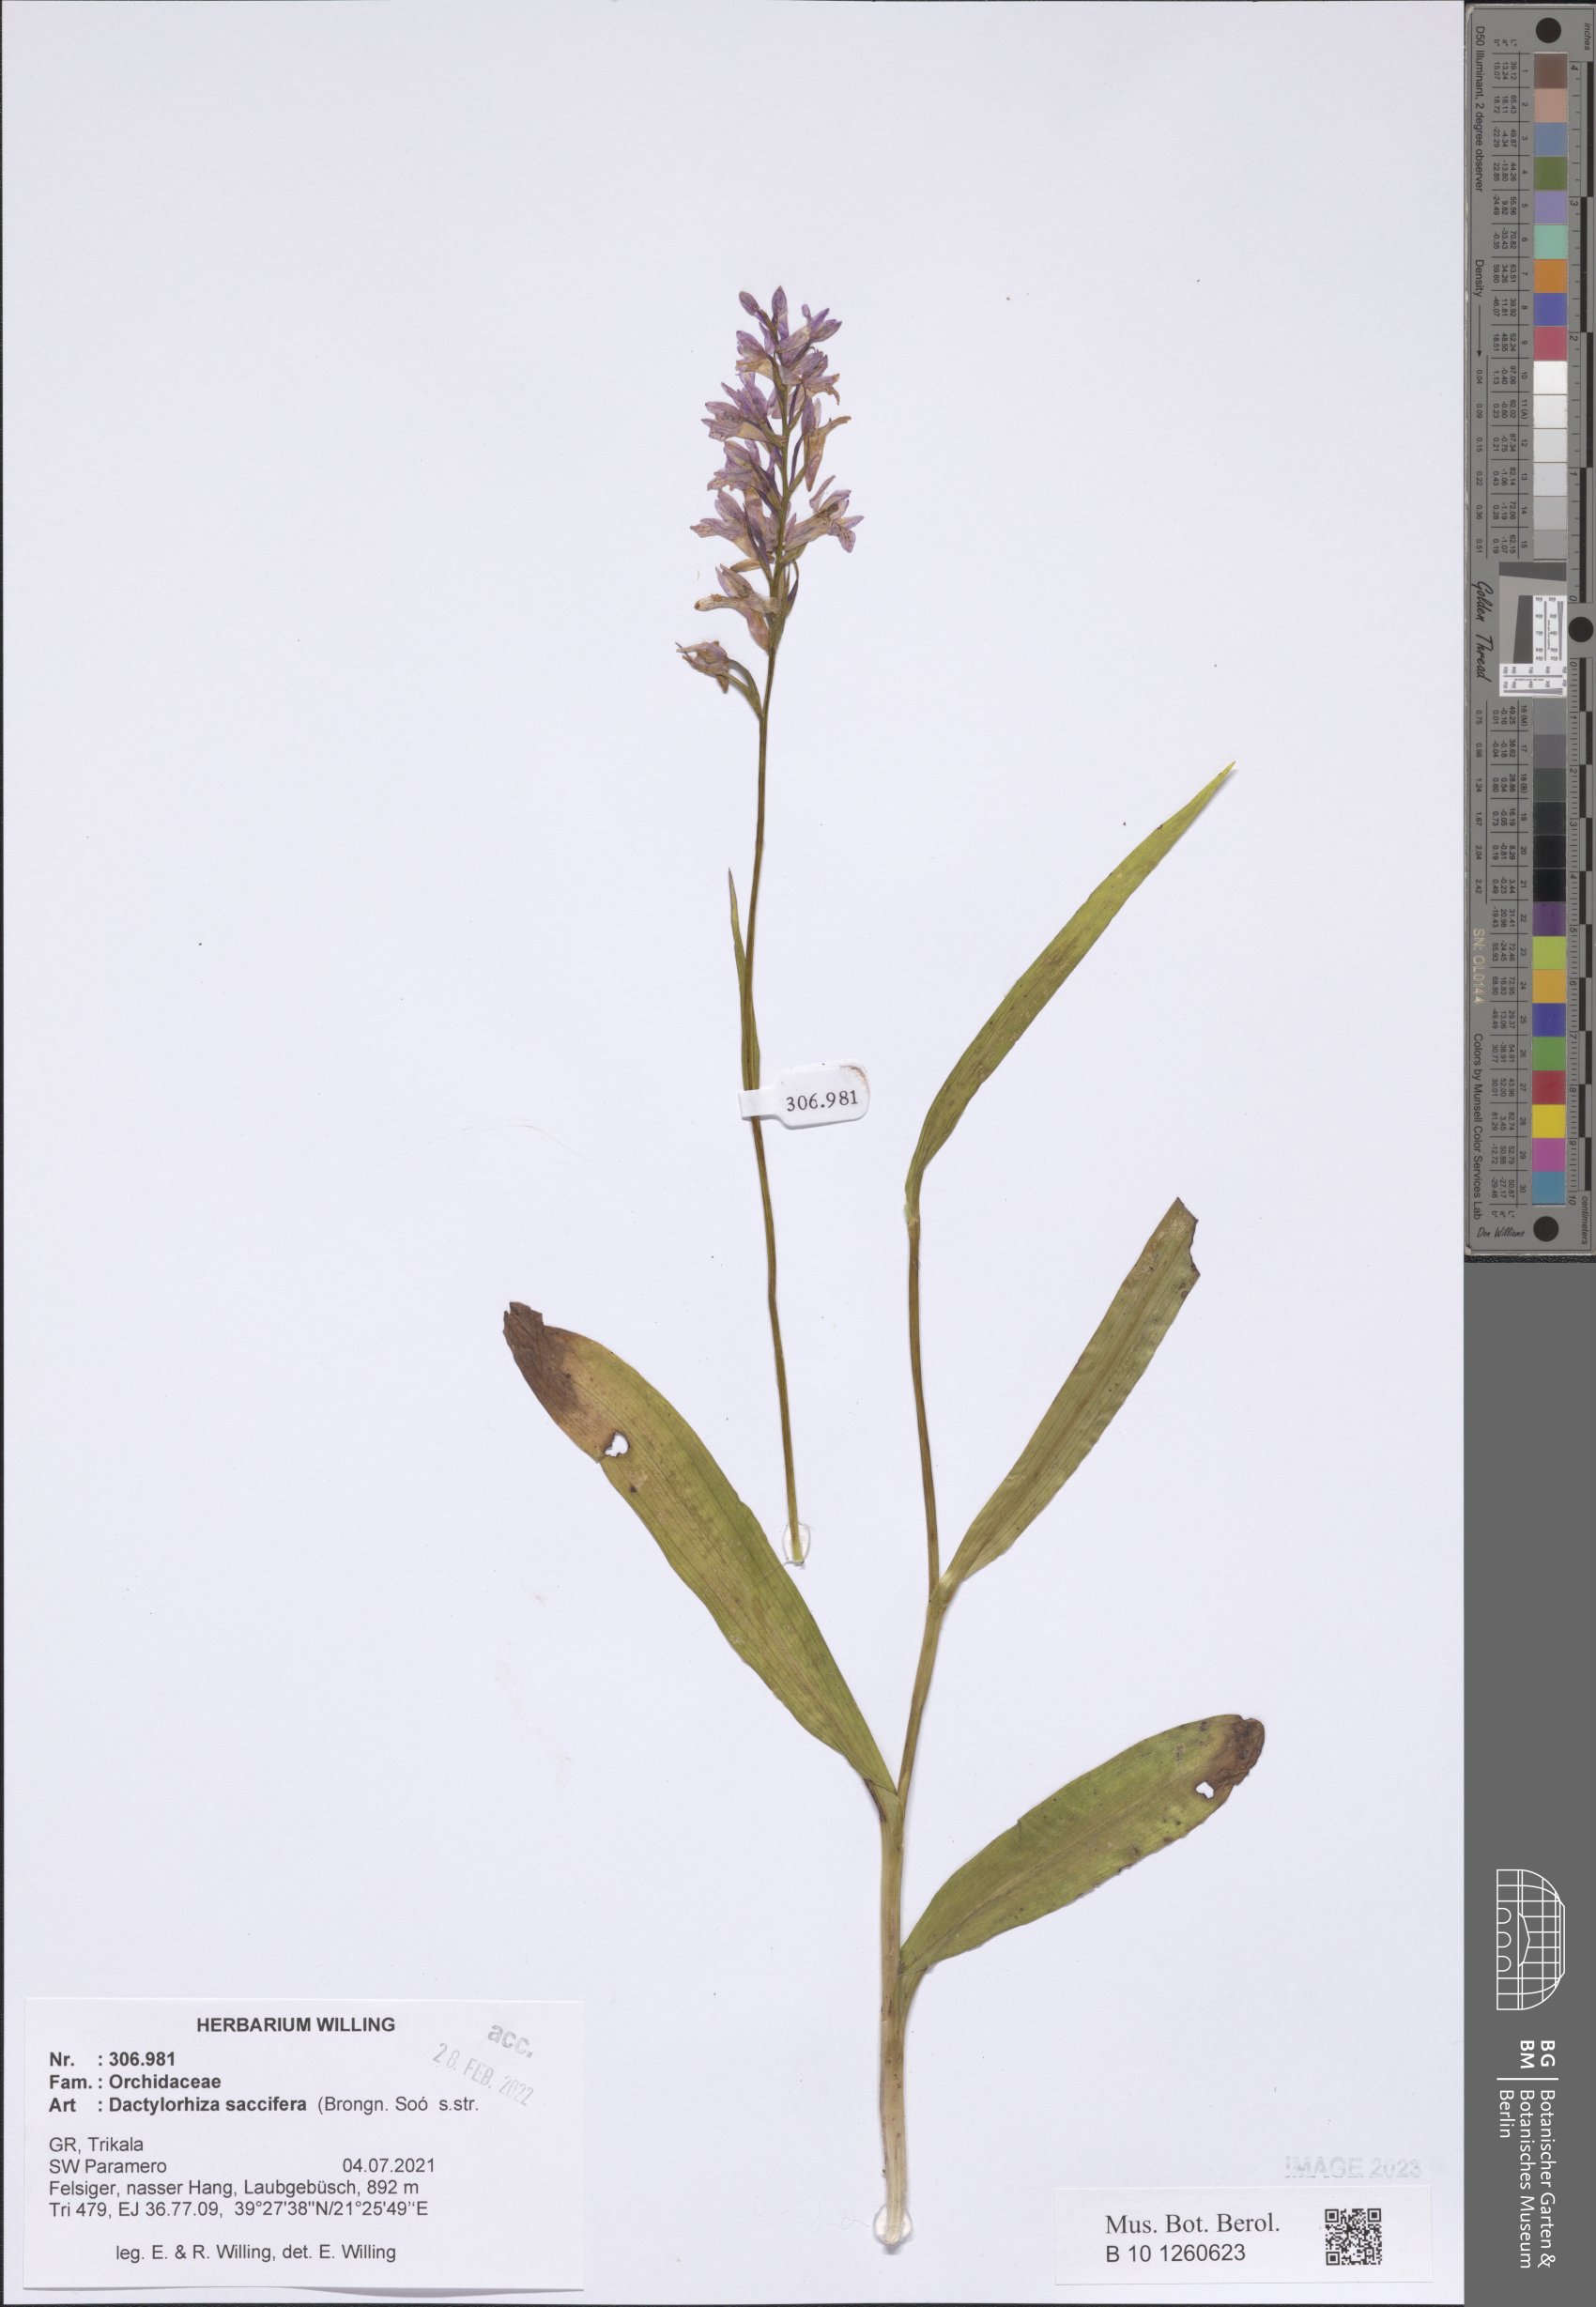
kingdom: Plantae
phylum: Tracheophyta
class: Liliopsida
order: Asparagales
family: Orchidaceae
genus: Dactylorhiza
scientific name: Dactylorhiza maculata
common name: Heath spotted-orchid
